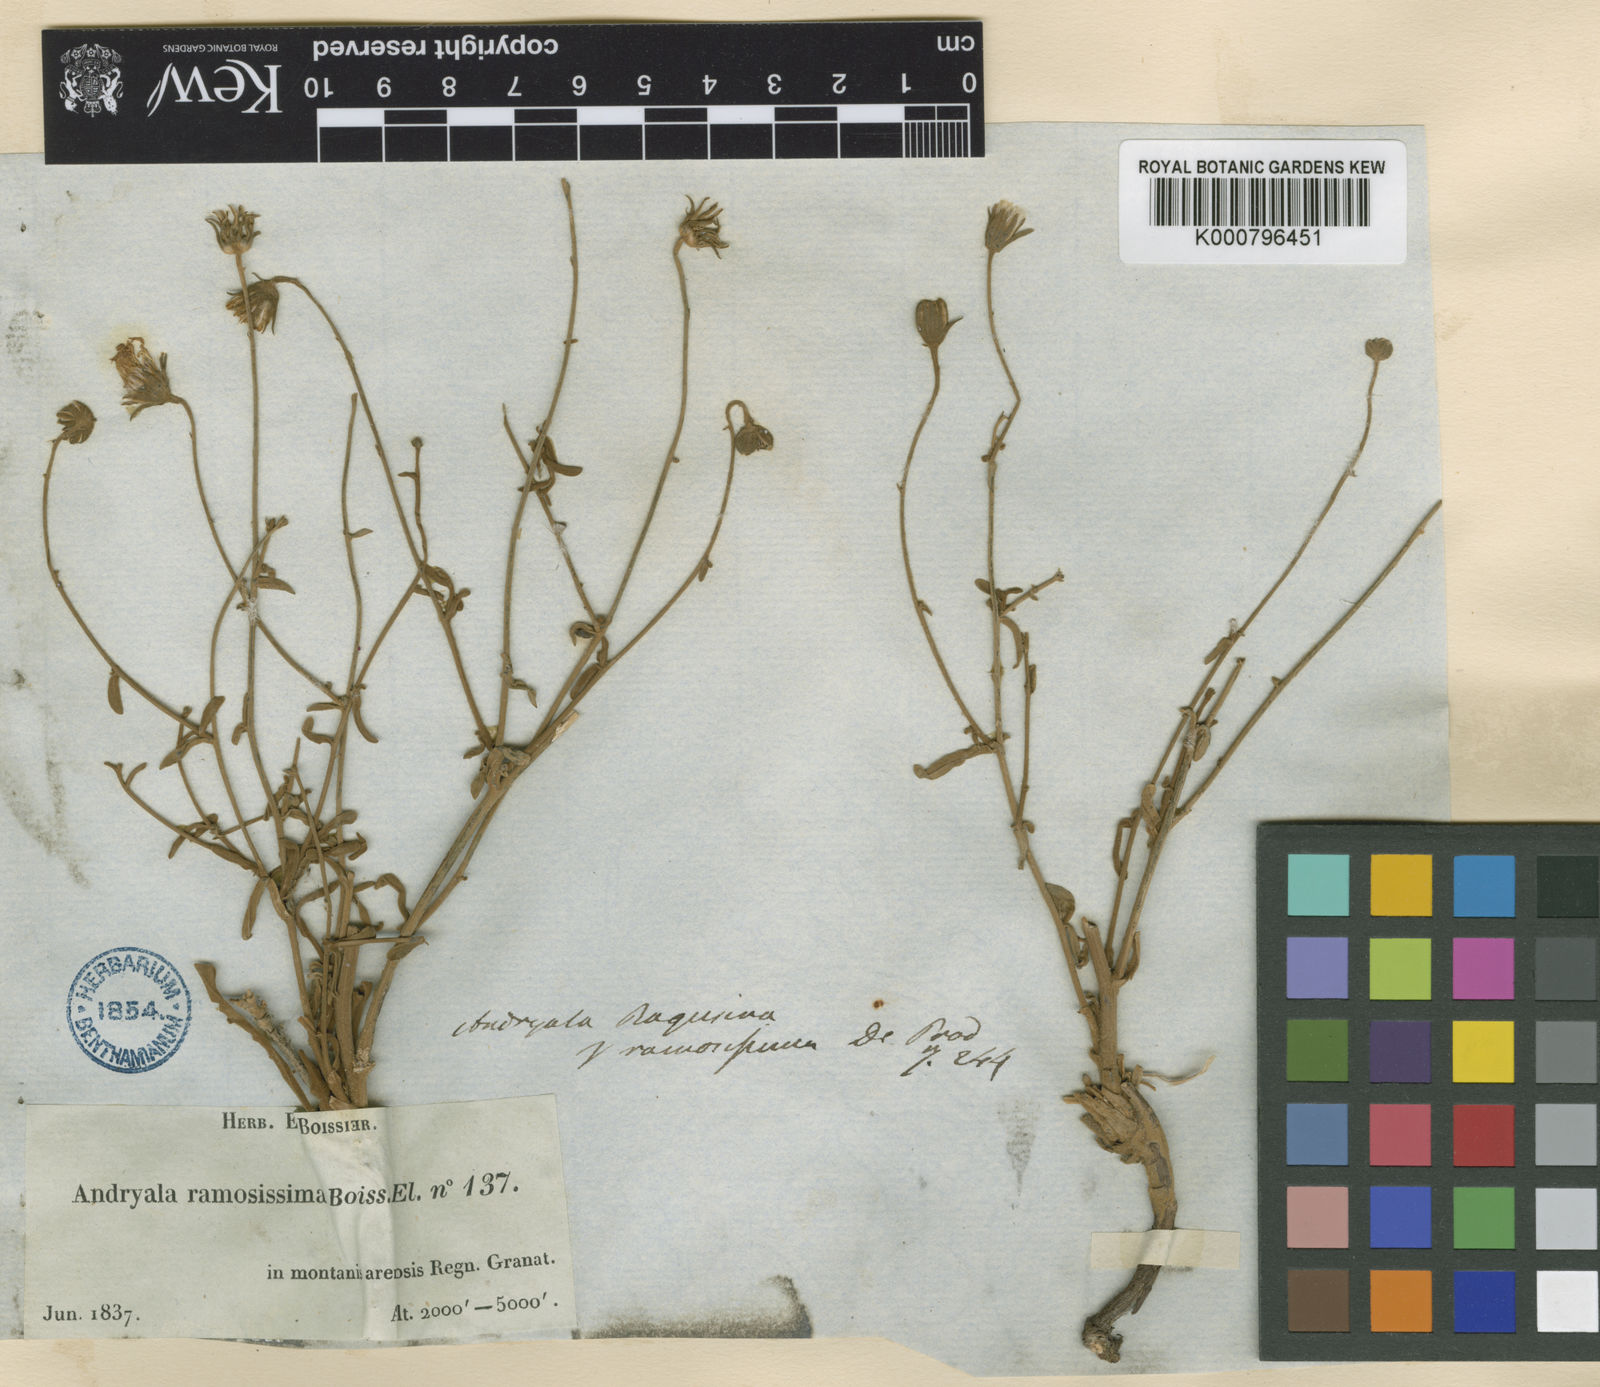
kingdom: Plantae
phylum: Tracheophyta
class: Magnoliopsida
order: Asterales
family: Asteraceae
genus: Andryala
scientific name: Andryala ragusina
